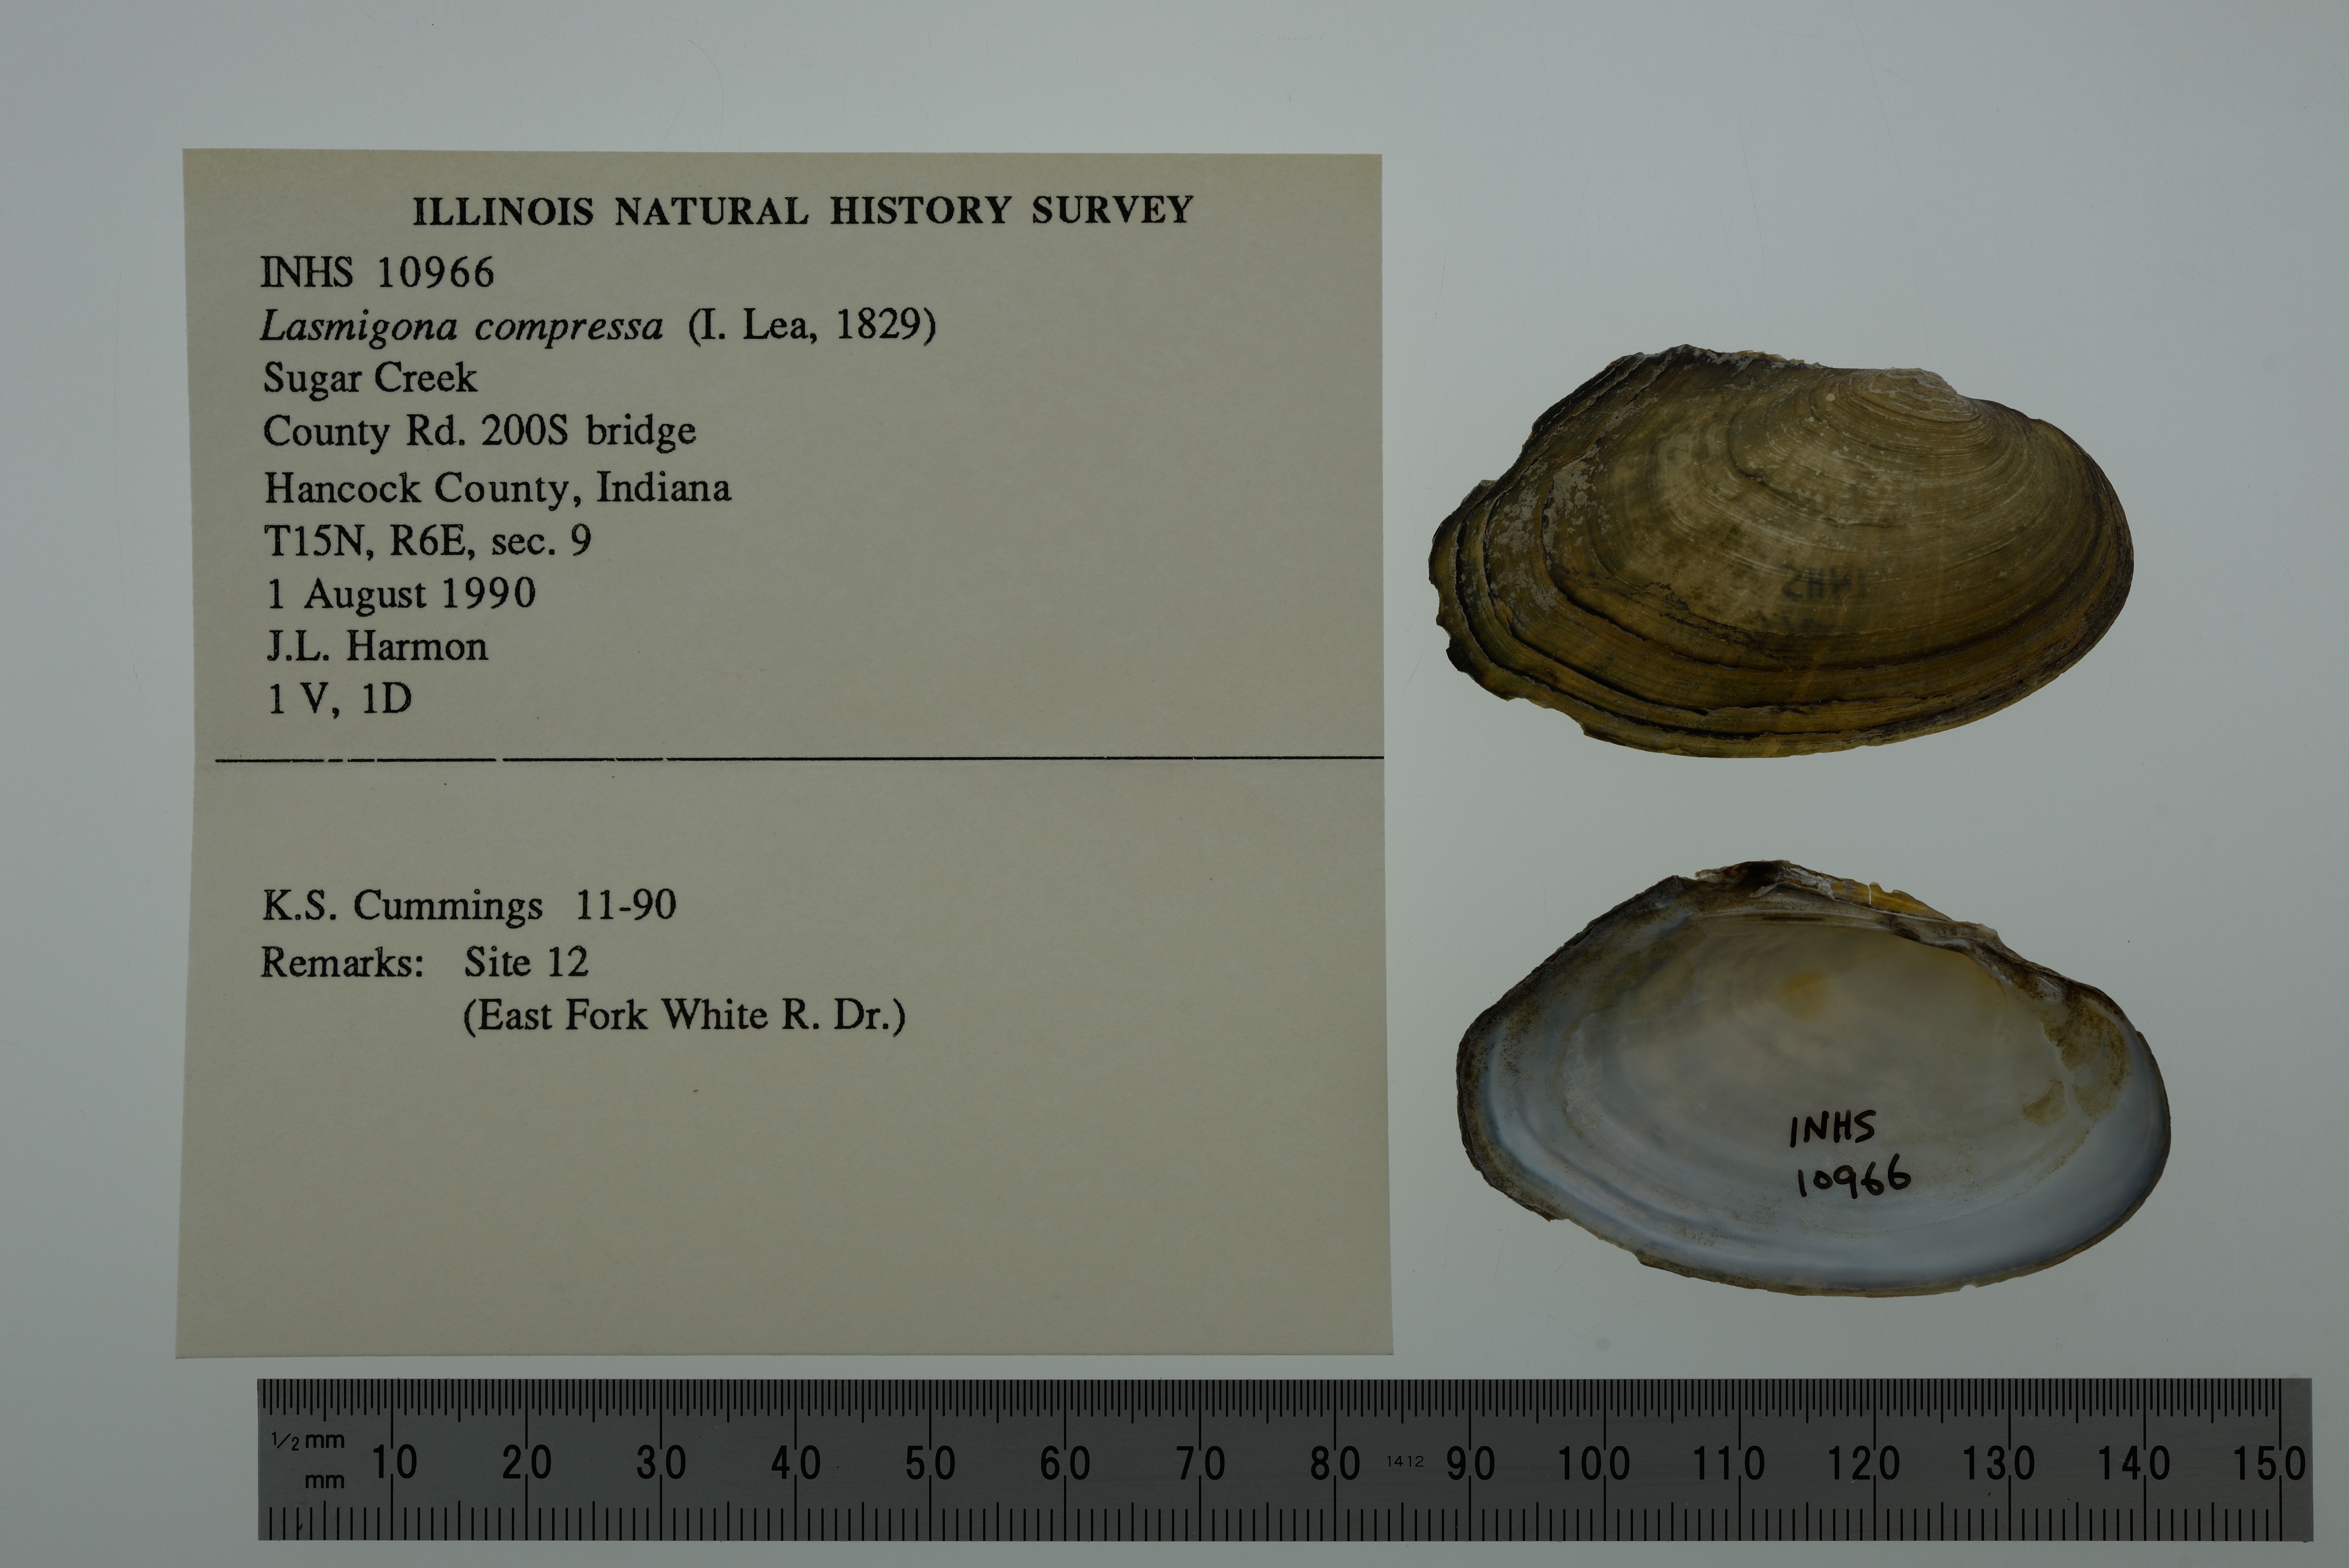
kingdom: Animalia
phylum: Mollusca
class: Bivalvia
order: Unionida
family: Unionidae
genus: Lasmigona
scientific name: Lasmigona compressa
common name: Creek heelsplitter
